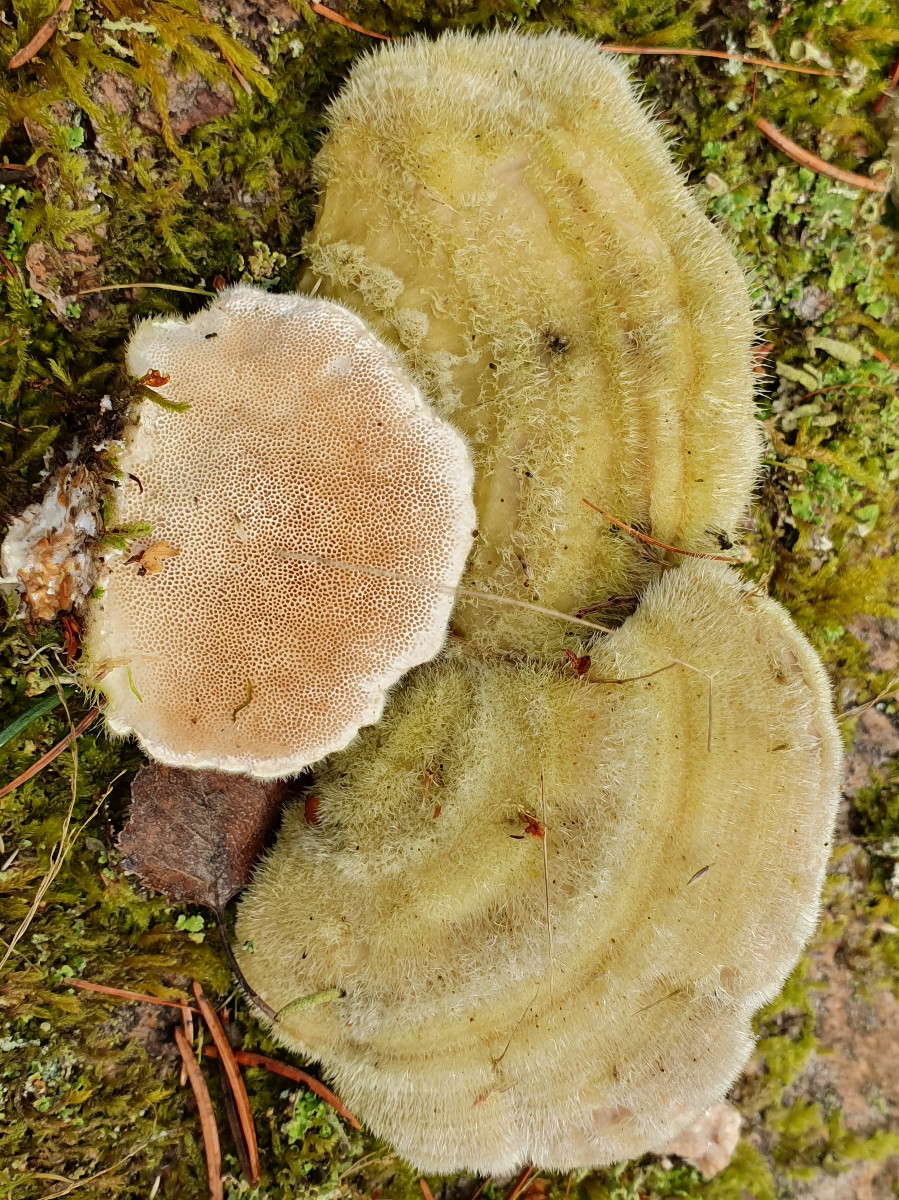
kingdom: Fungi
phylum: Basidiomycota
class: Agaricomycetes
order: Polyporales
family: Polyporaceae
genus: Trametes
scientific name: Trametes hirsuta
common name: håret læderporesvamp
